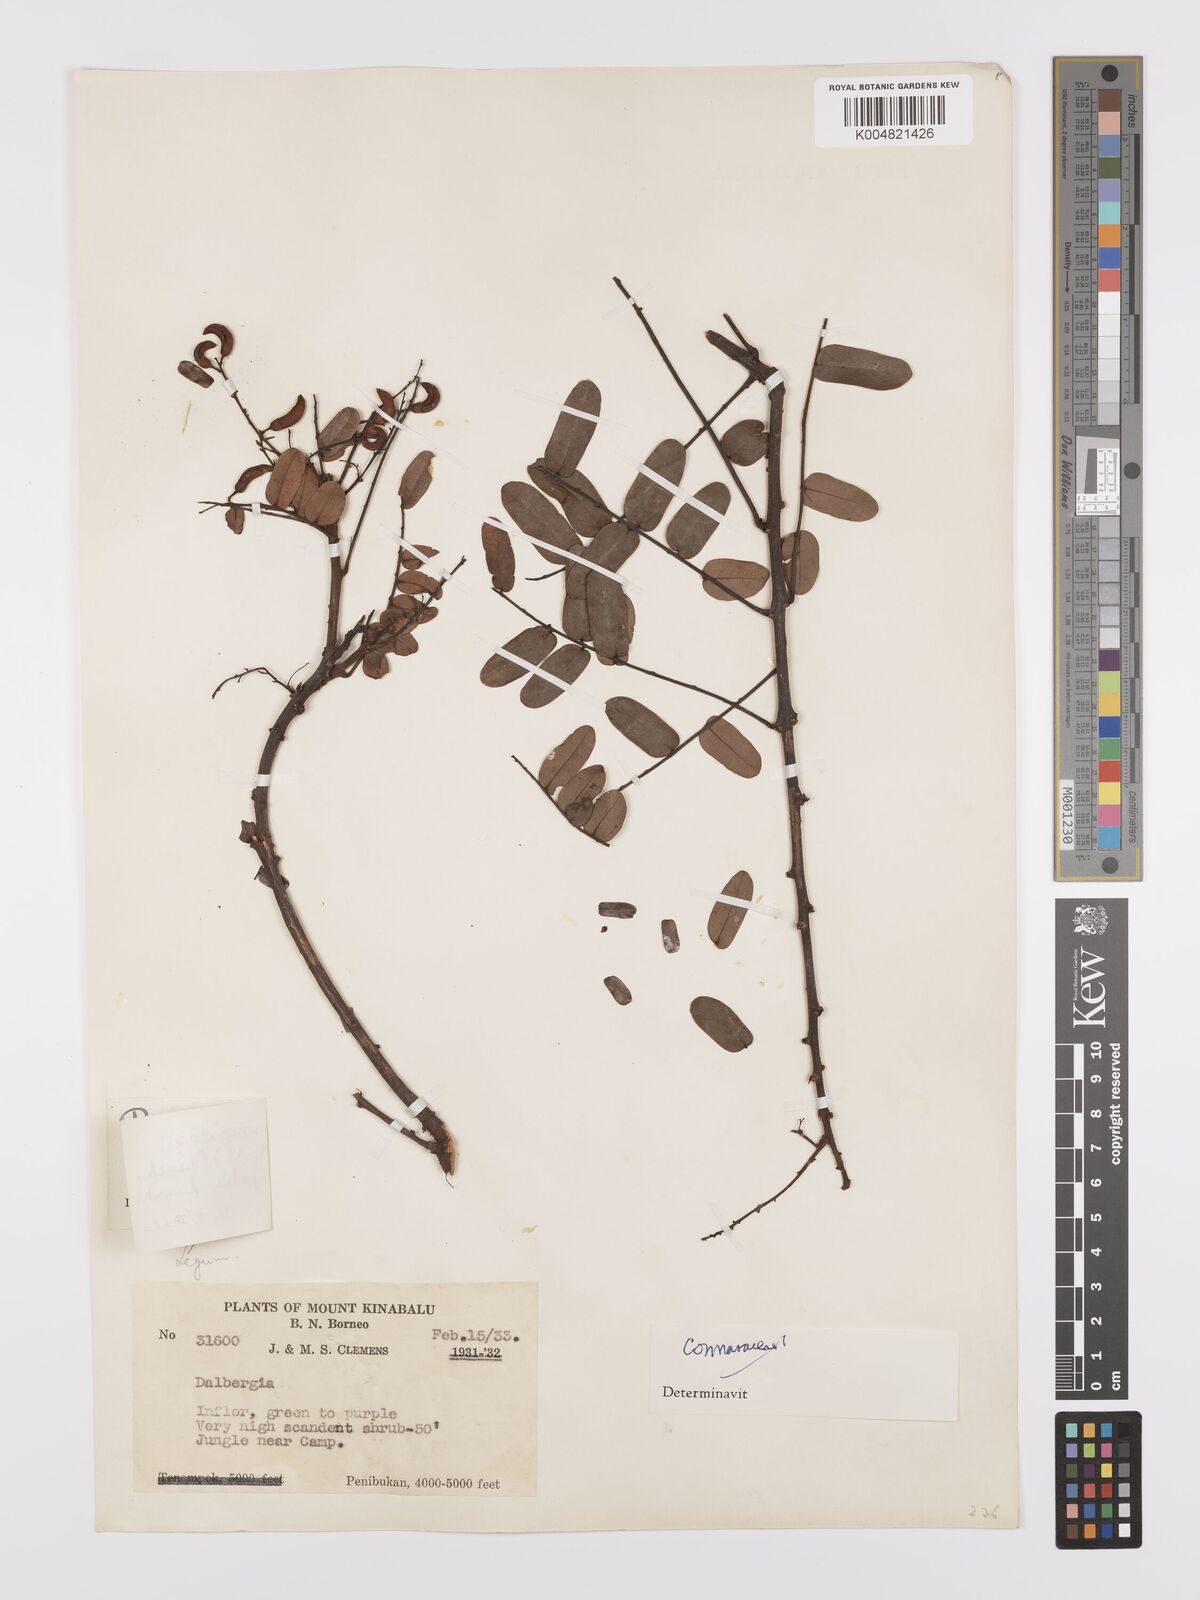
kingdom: Plantae
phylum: Tracheophyta
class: Magnoliopsida
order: Oxalidales
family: Connaraceae
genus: Rourea
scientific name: Rourea mimosoides
